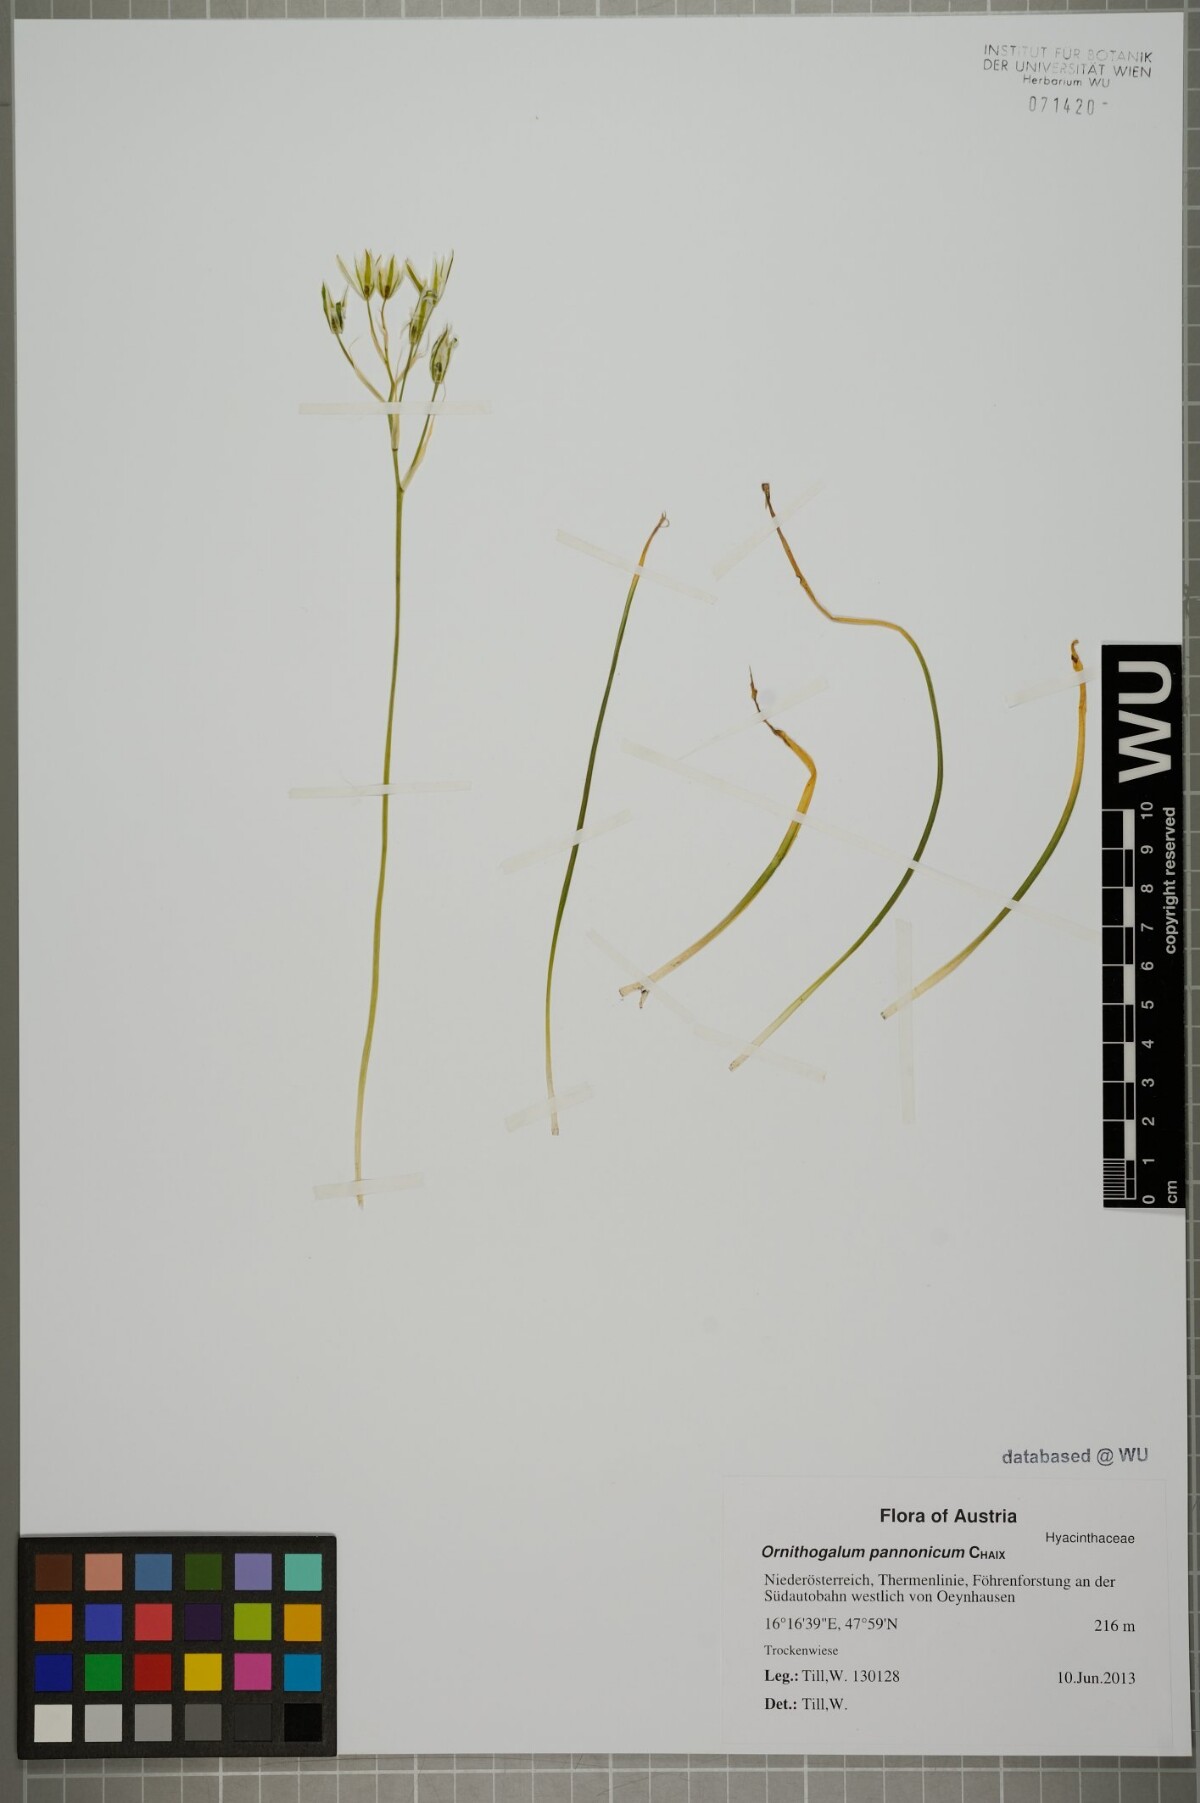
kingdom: Plantae
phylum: Tracheophyta
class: Liliopsida
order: Asparagales
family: Asparagaceae
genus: Ornithogalum
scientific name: Ornithogalum comosum
